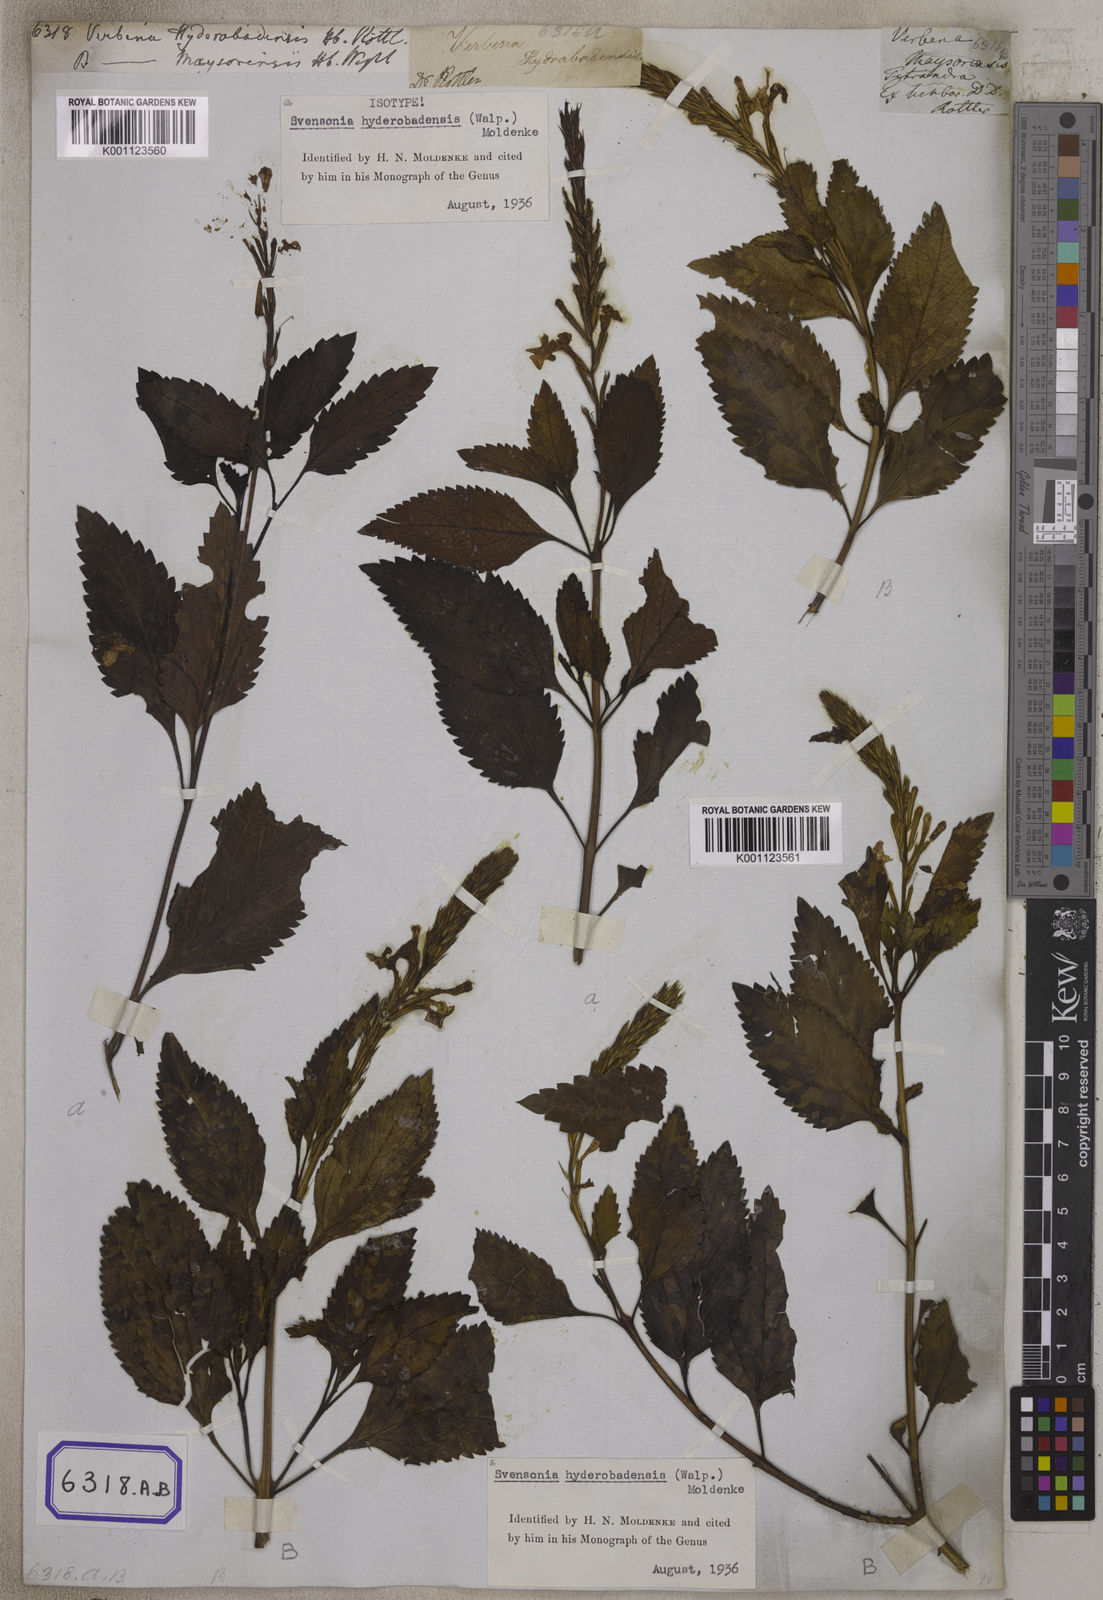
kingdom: Plantae
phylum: Tracheophyta
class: Magnoliopsida
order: Lamiales
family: Verbenaceae
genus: Chascanum
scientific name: Chascanum hyderabadense
